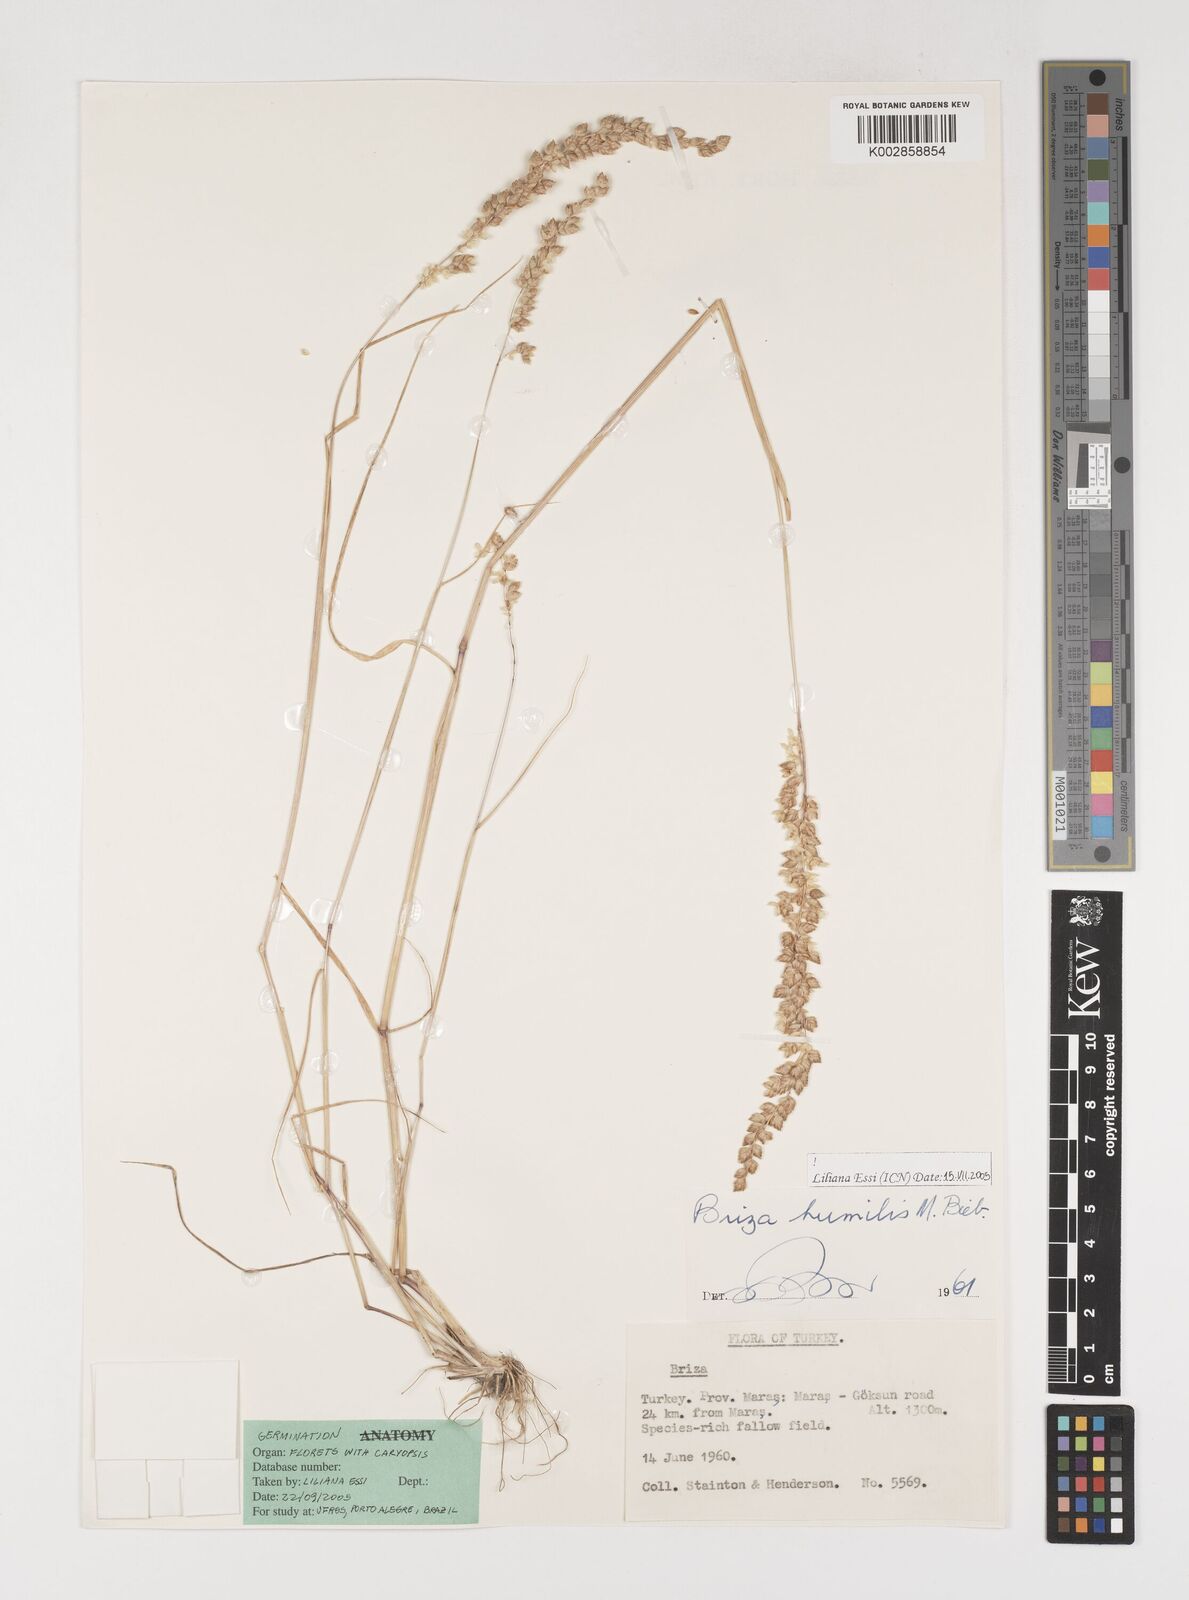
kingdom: Plantae
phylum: Tracheophyta
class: Liliopsida
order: Poales
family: Poaceae
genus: Briza
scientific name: Briza humilis
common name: Spiked quaking grass
